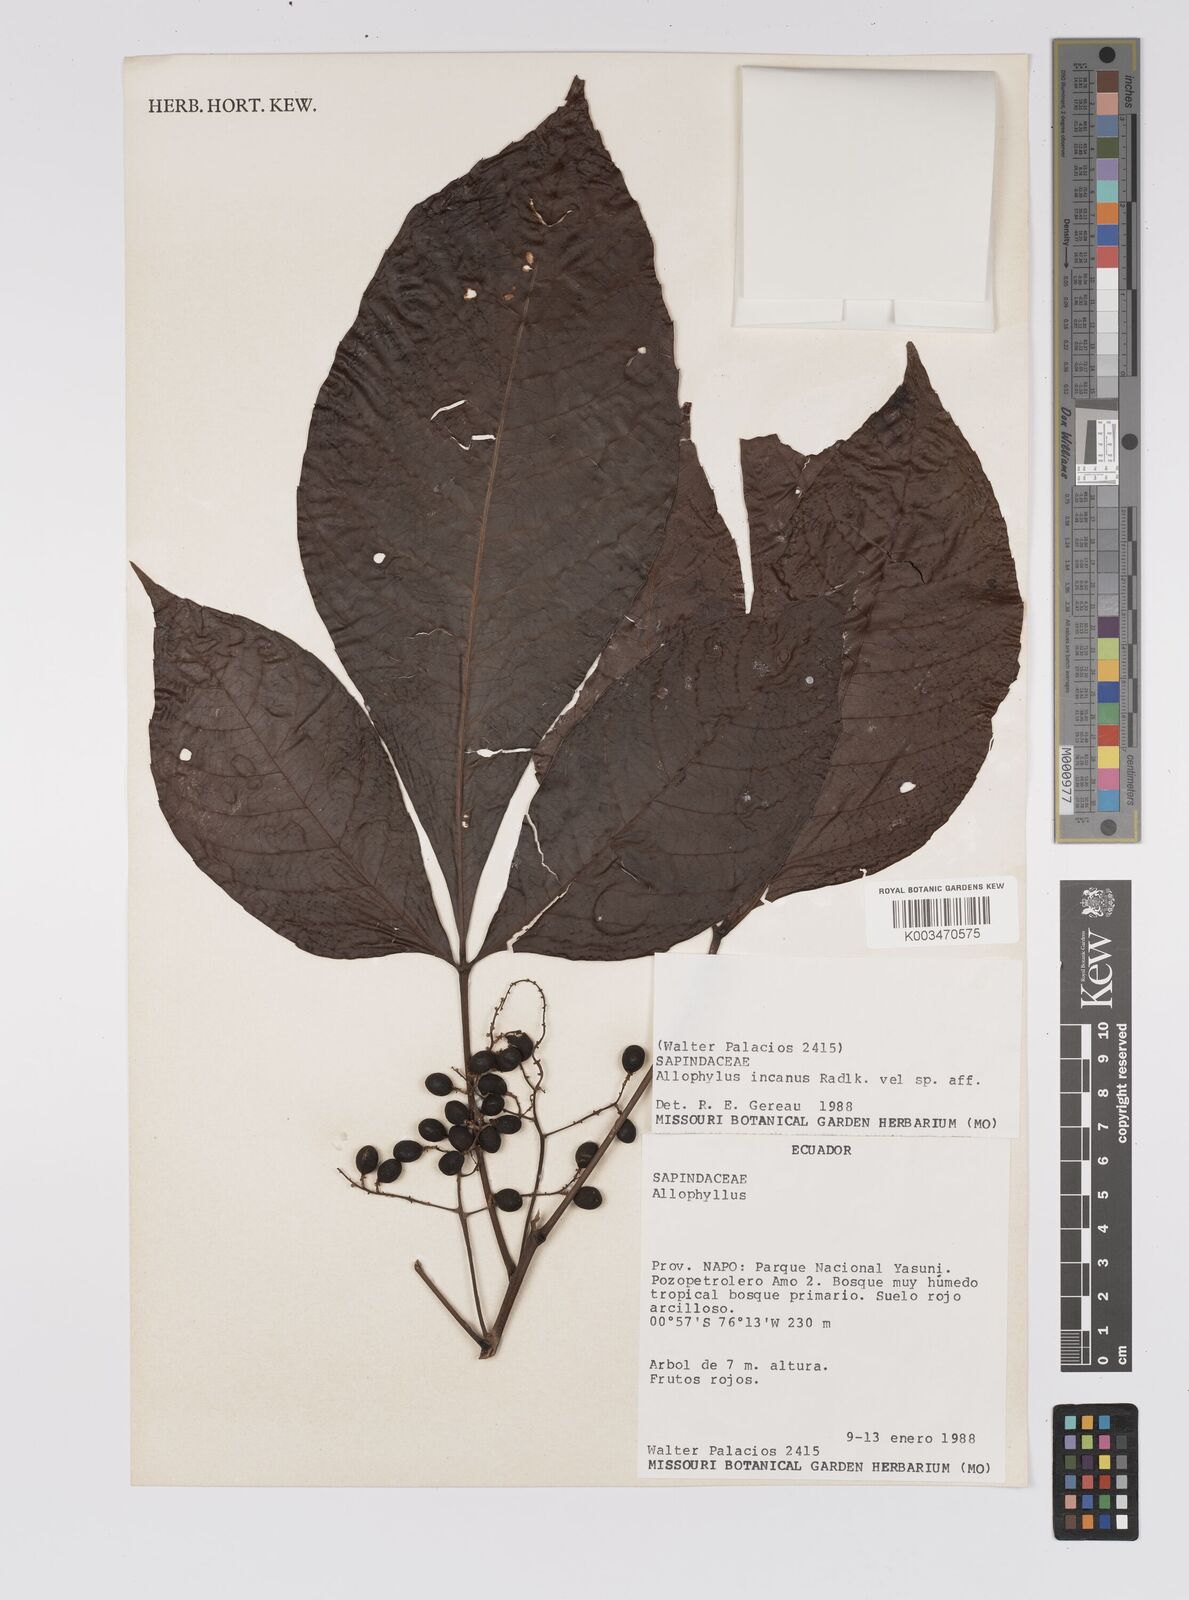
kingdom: Plantae
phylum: Tracheophyta
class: Magnoliopsida
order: Sapindales
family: Sapindaceae
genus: Allophylus
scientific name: Allophylus incanus
